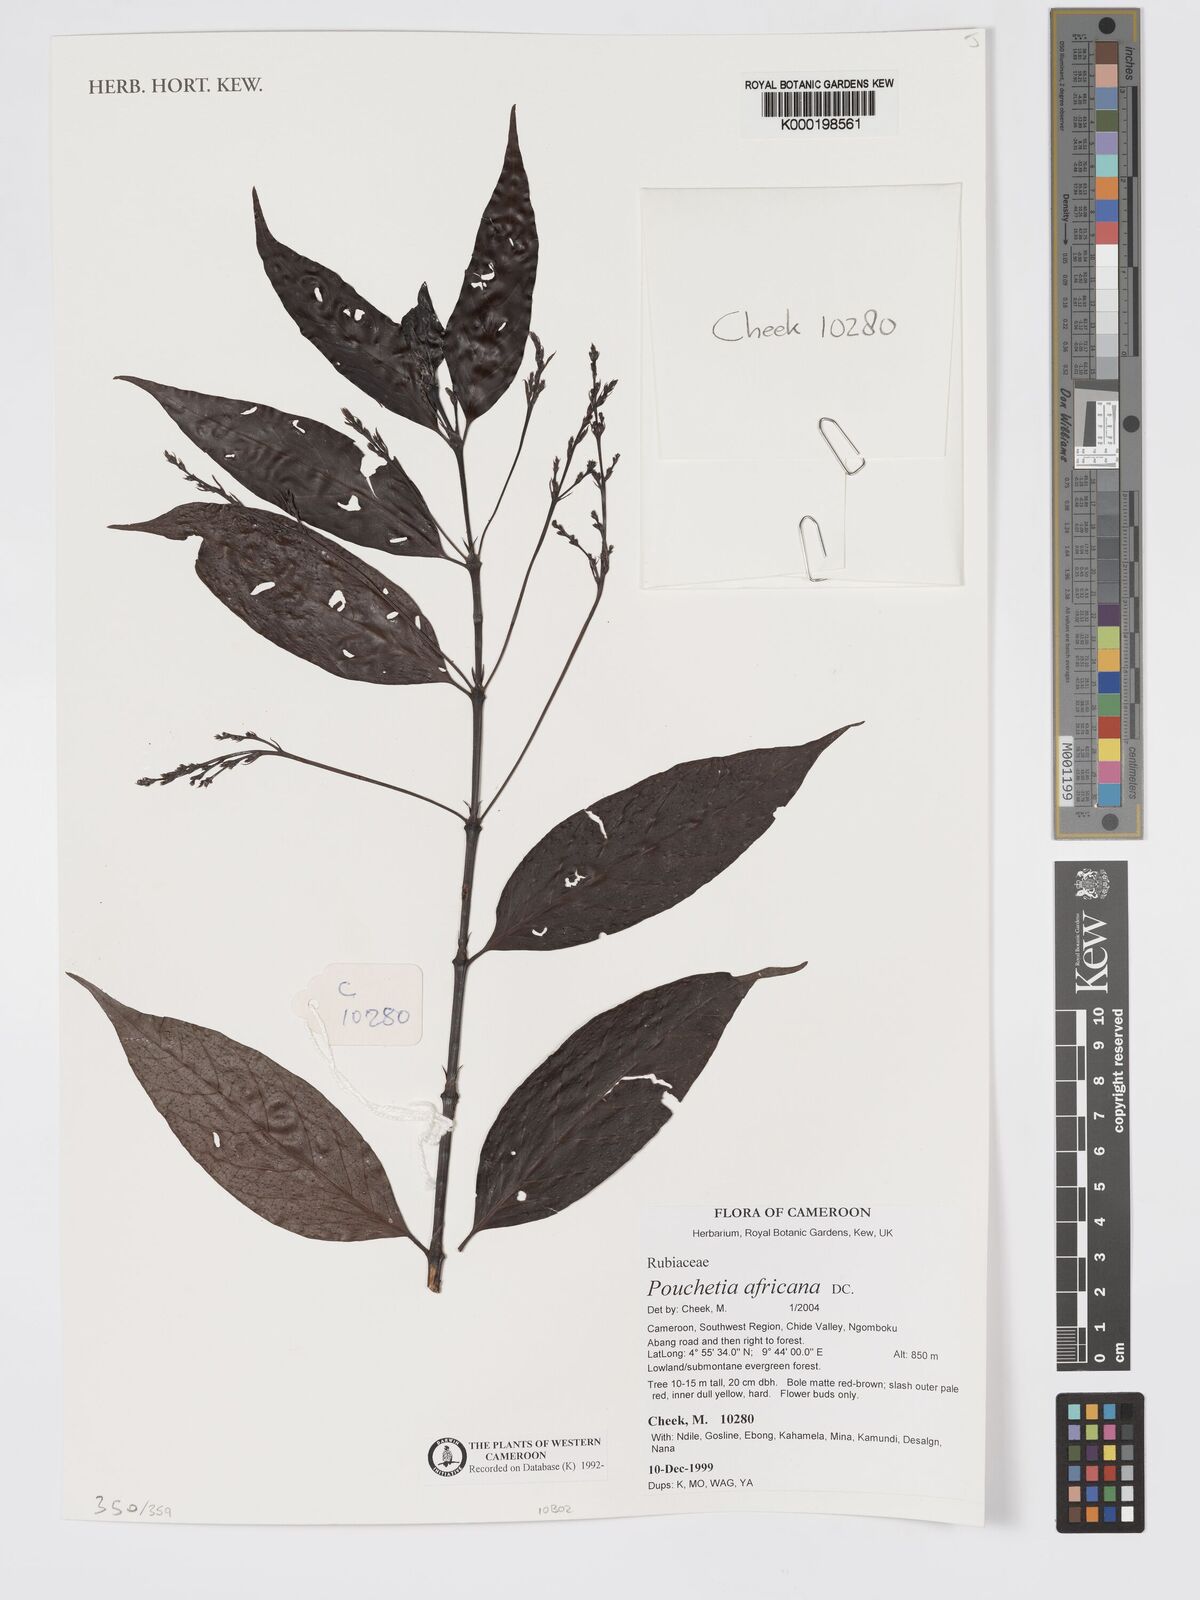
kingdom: Plantae
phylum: Tracheophyta
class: Magnoliopsida
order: Gentianales
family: Rubiaceae
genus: Pouchetia
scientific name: Pouchetia africana
